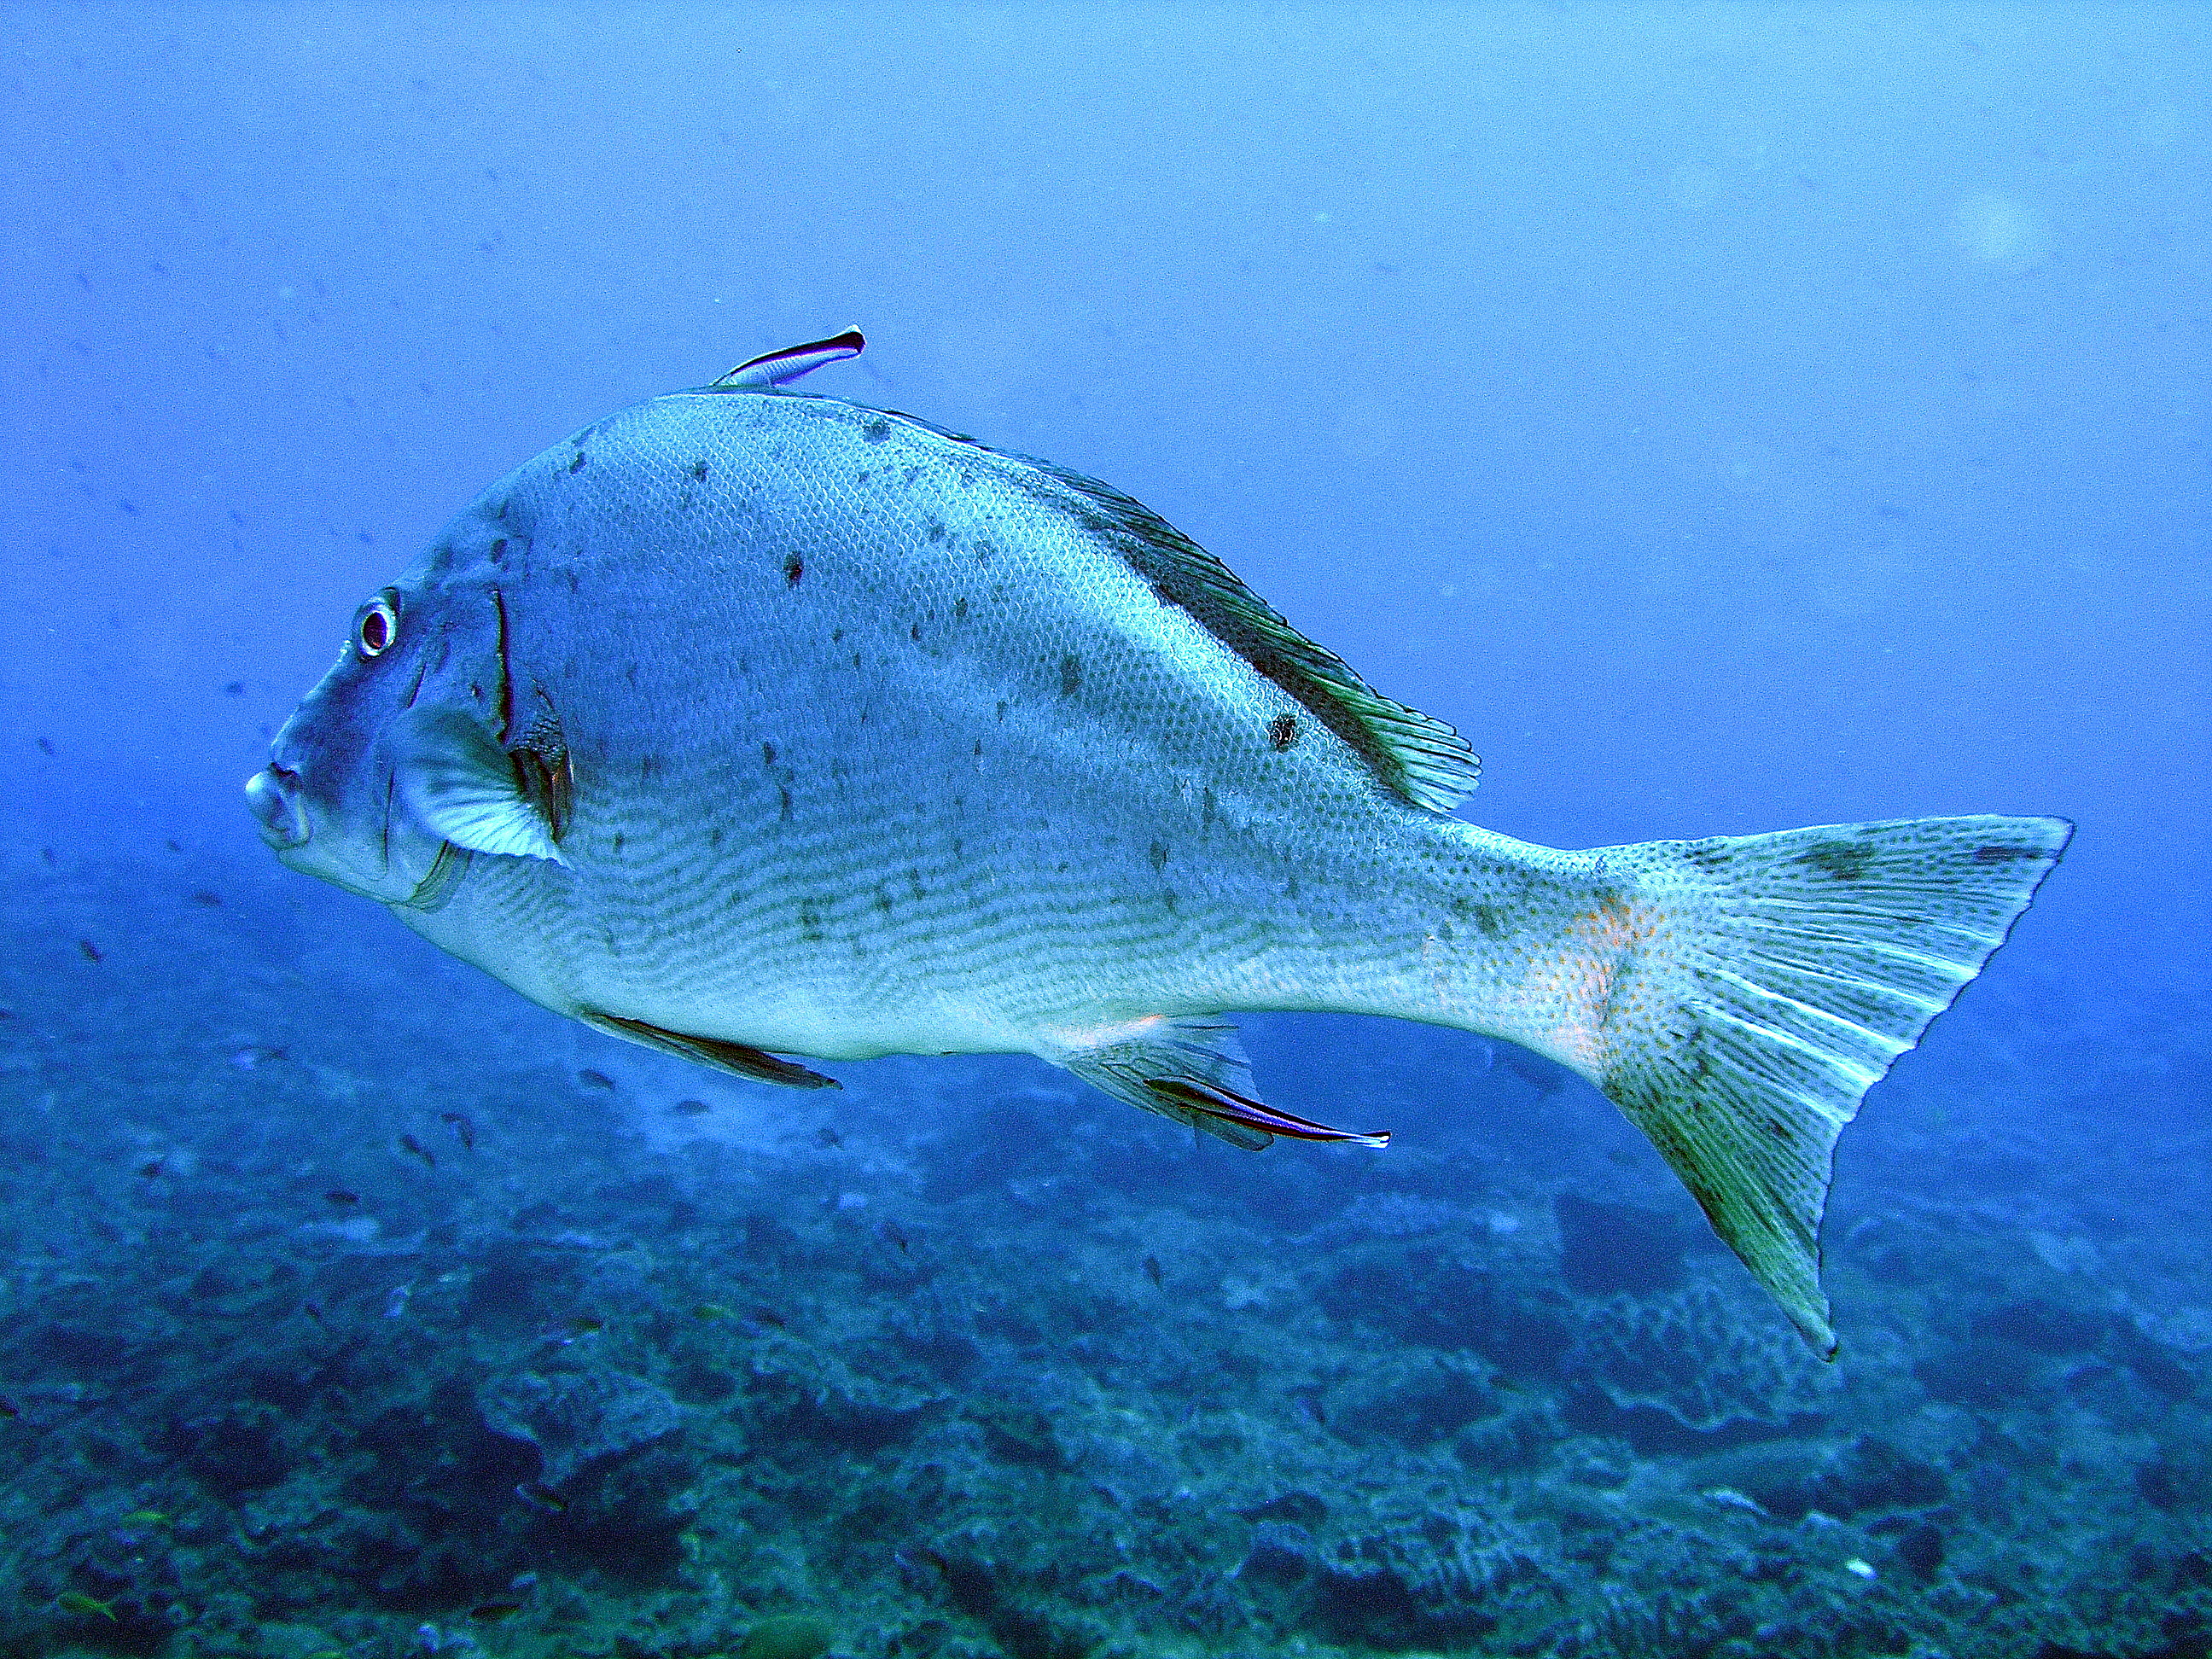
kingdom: Animalia
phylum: Chordata
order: Perciformes
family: Haemulidae
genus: Diagramma
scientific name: Diagramma centurio
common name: Sailfin rubberlip
